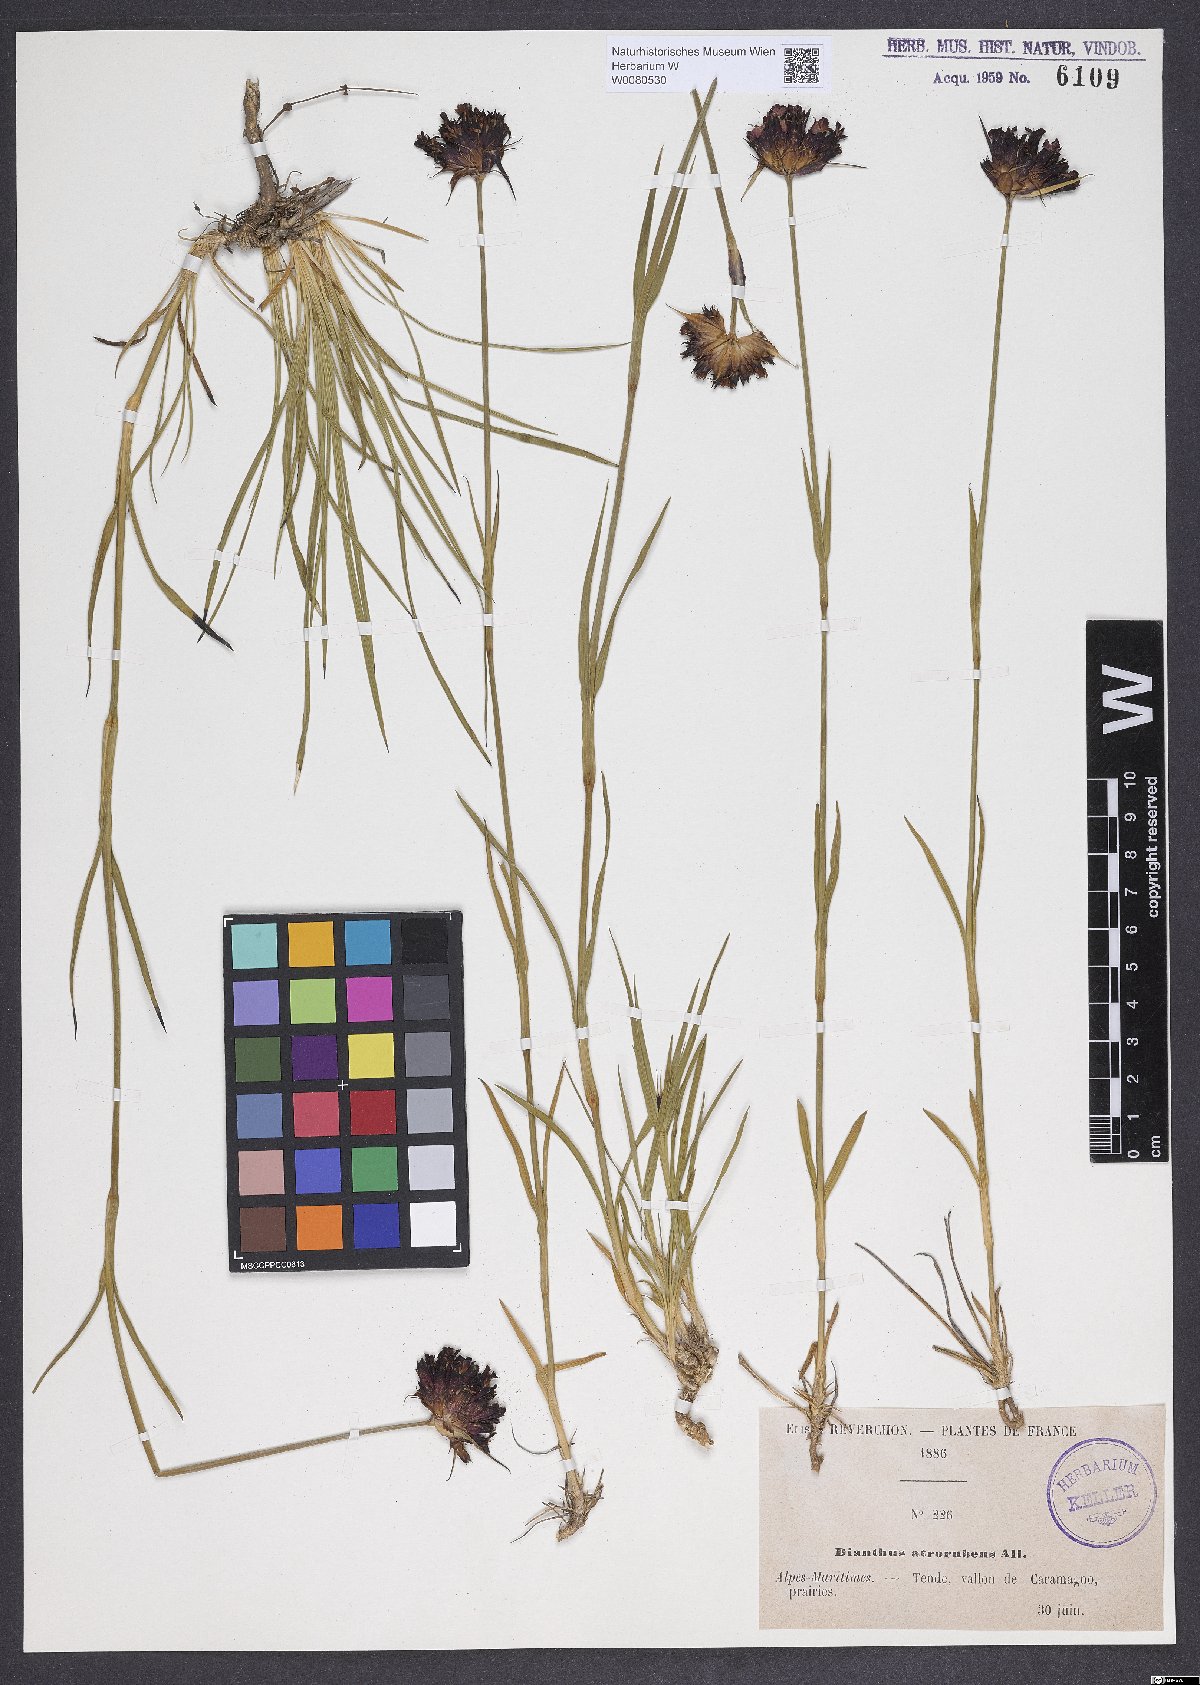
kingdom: Plantae
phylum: Tracheophyta
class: Magnoliopsida
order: Caryophyllales
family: Caryophyllaceae
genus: Dianthus
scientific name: Dianthus carthusianorum
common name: Carthusian pink
